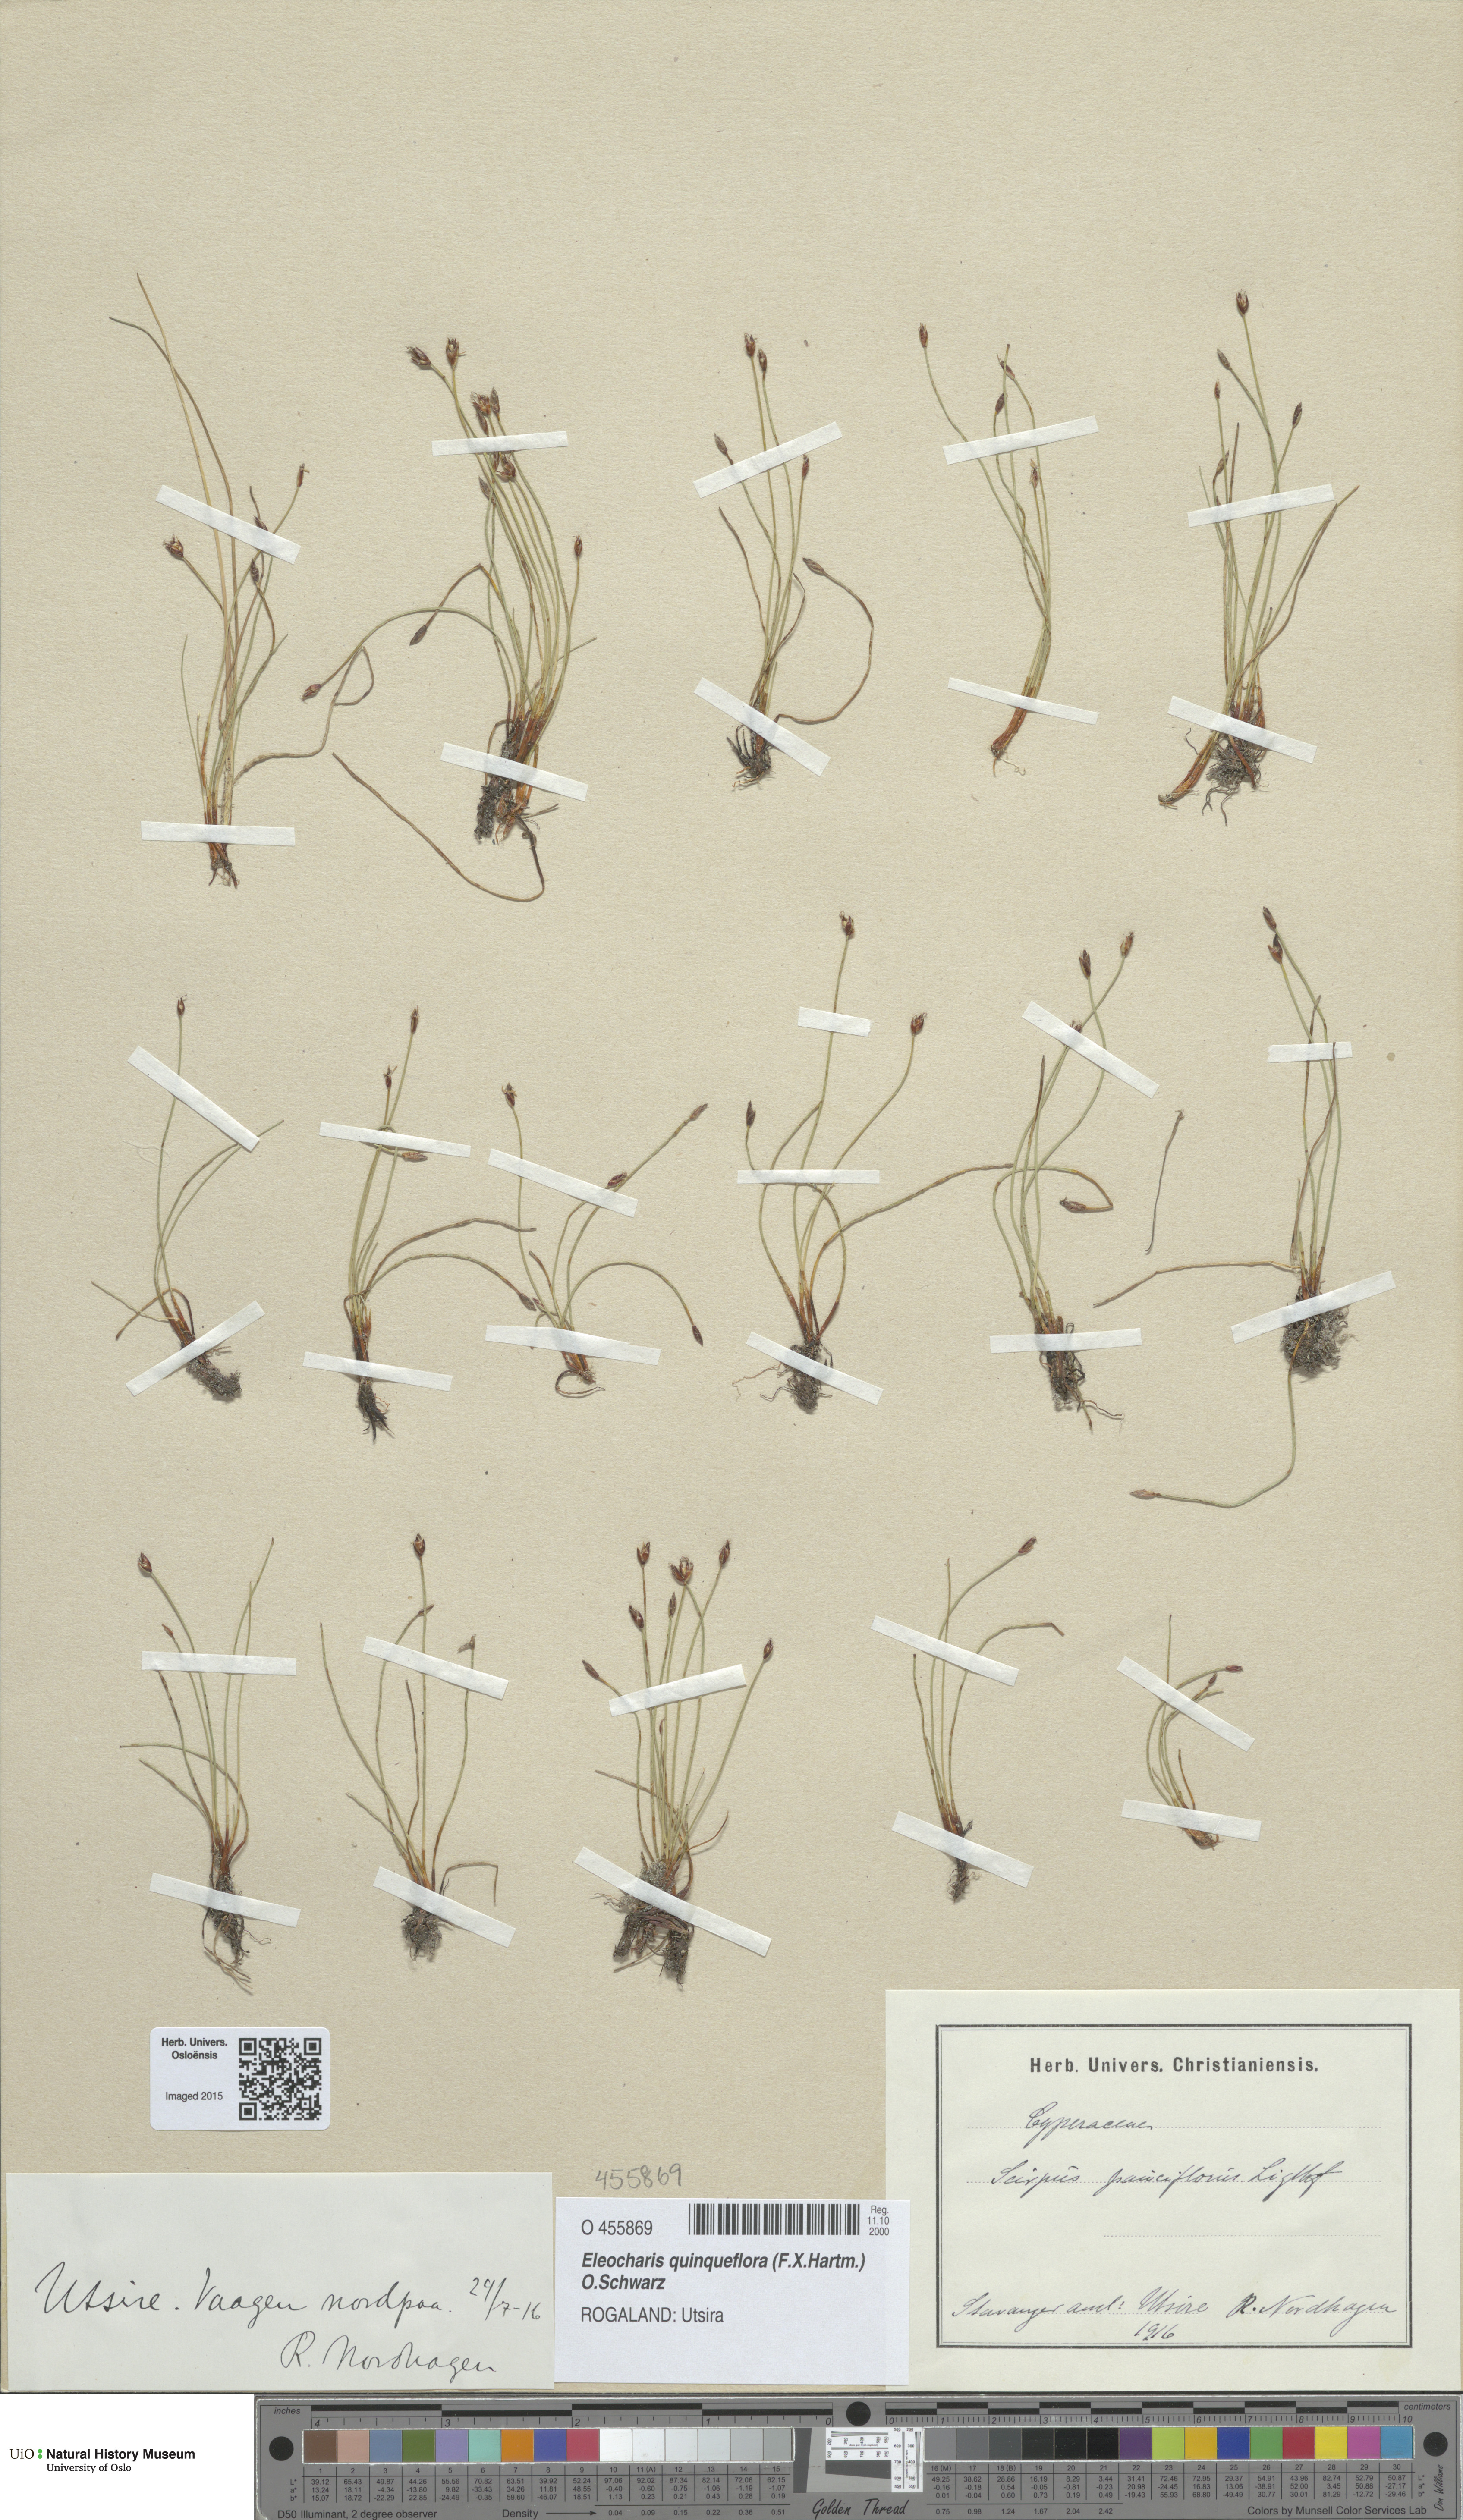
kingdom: Plantae
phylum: Tracheophyta
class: Liliopsida
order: Poales
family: Cyperaceae
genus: Eleocharis
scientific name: Eleocharis quinqueflora
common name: Few-flowered spike-rush
